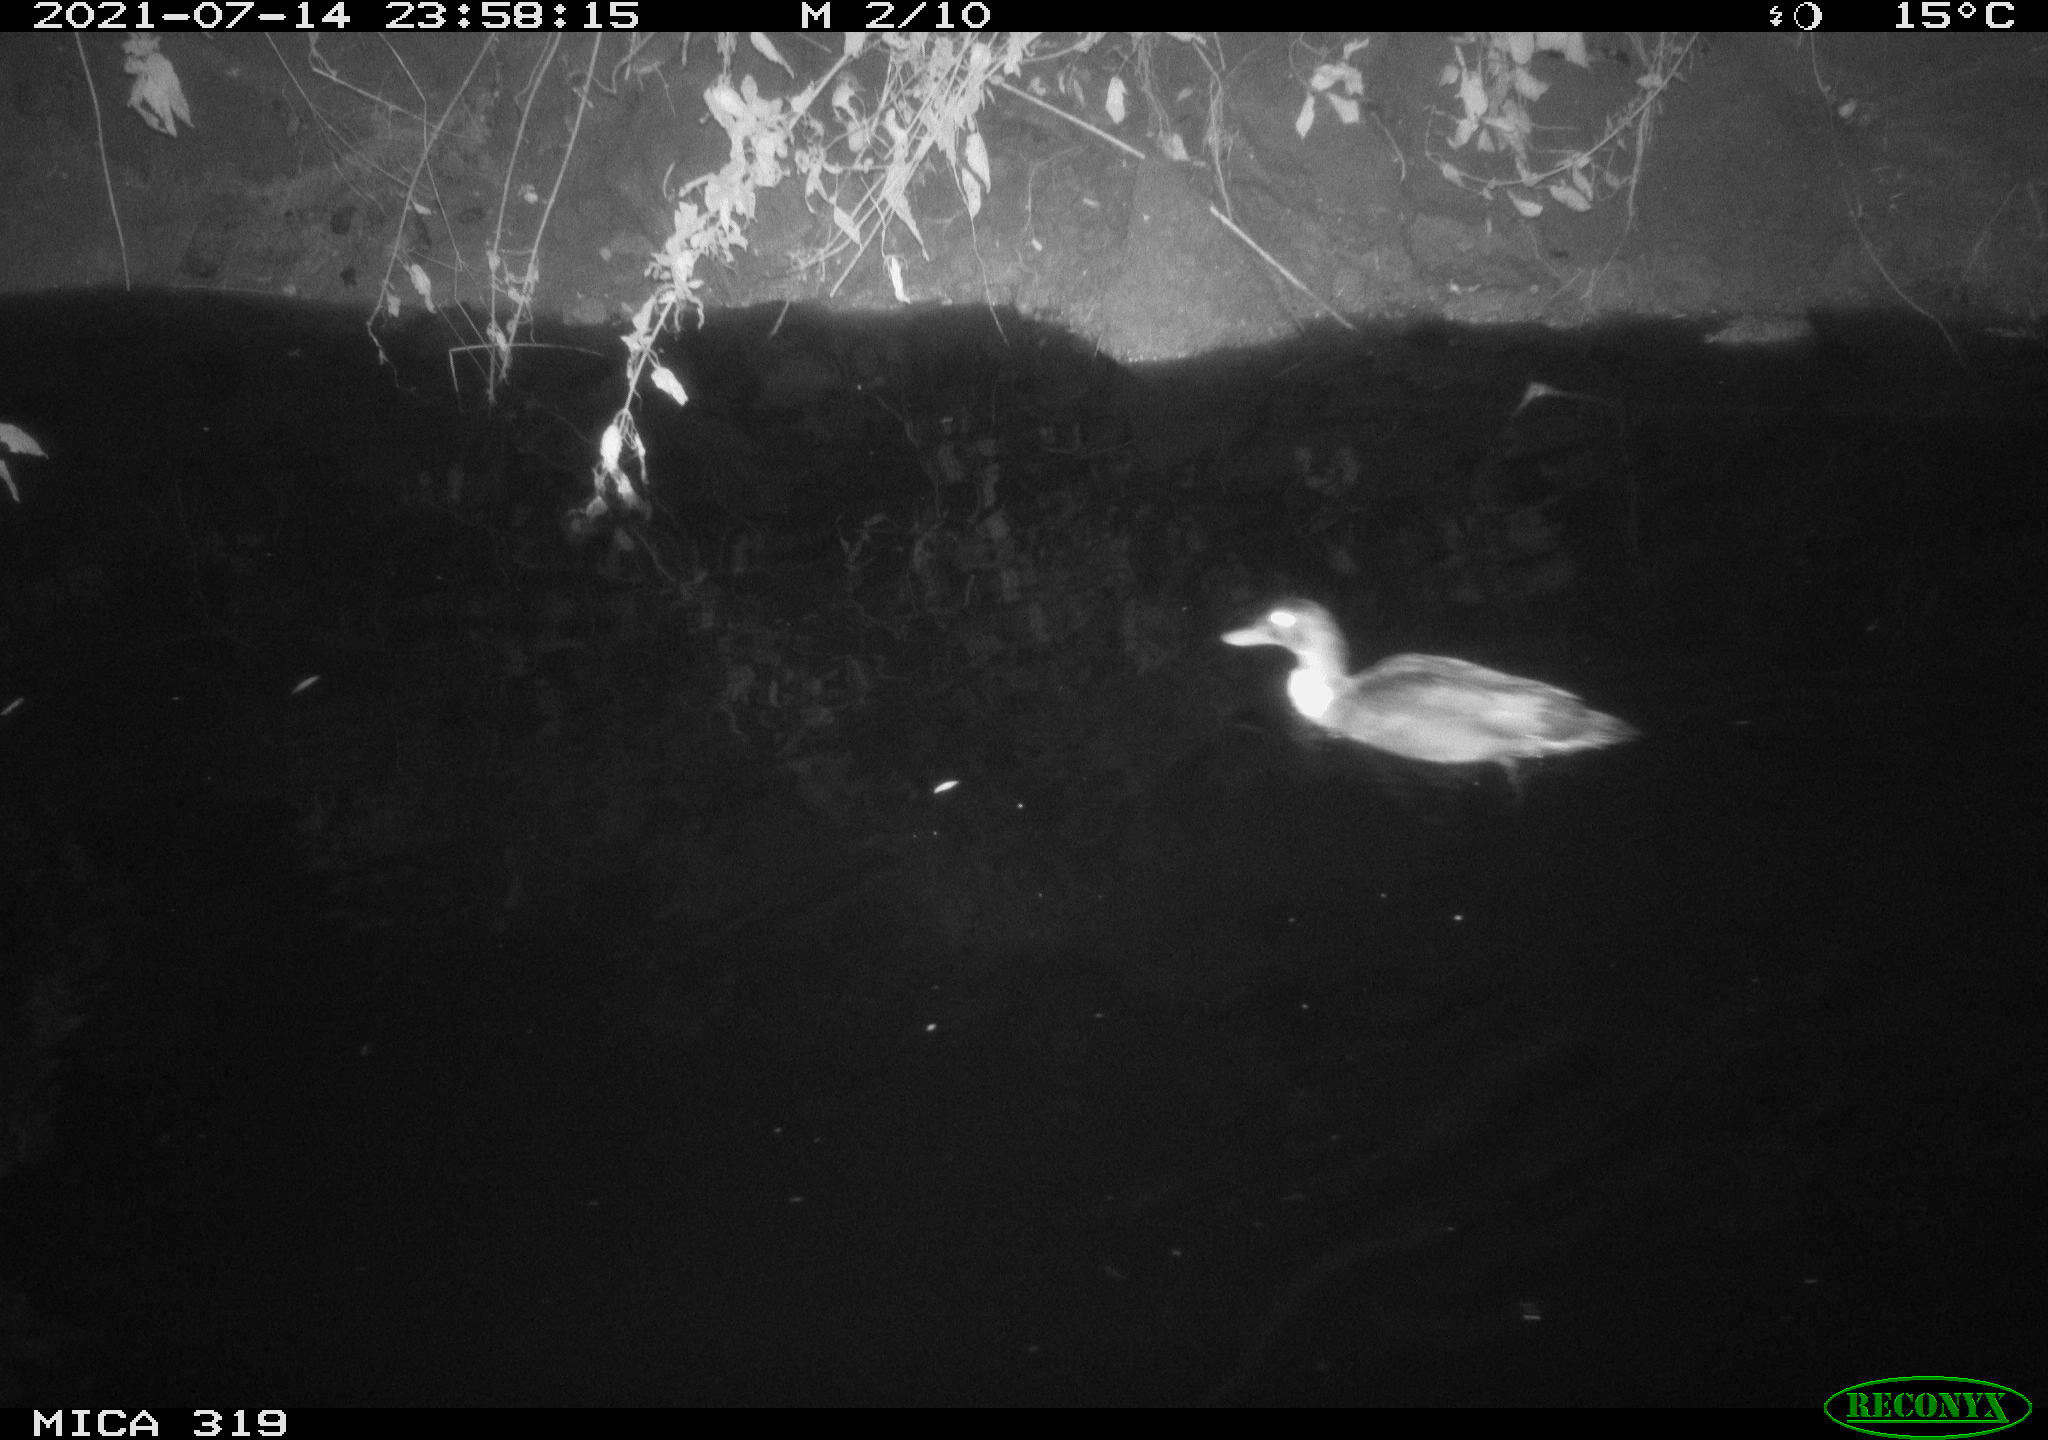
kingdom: Animalia
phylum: Chordata
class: Aves
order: Anseriformes
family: Anatidae
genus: Anas
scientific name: Anas platyrhynchos
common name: Mallard
